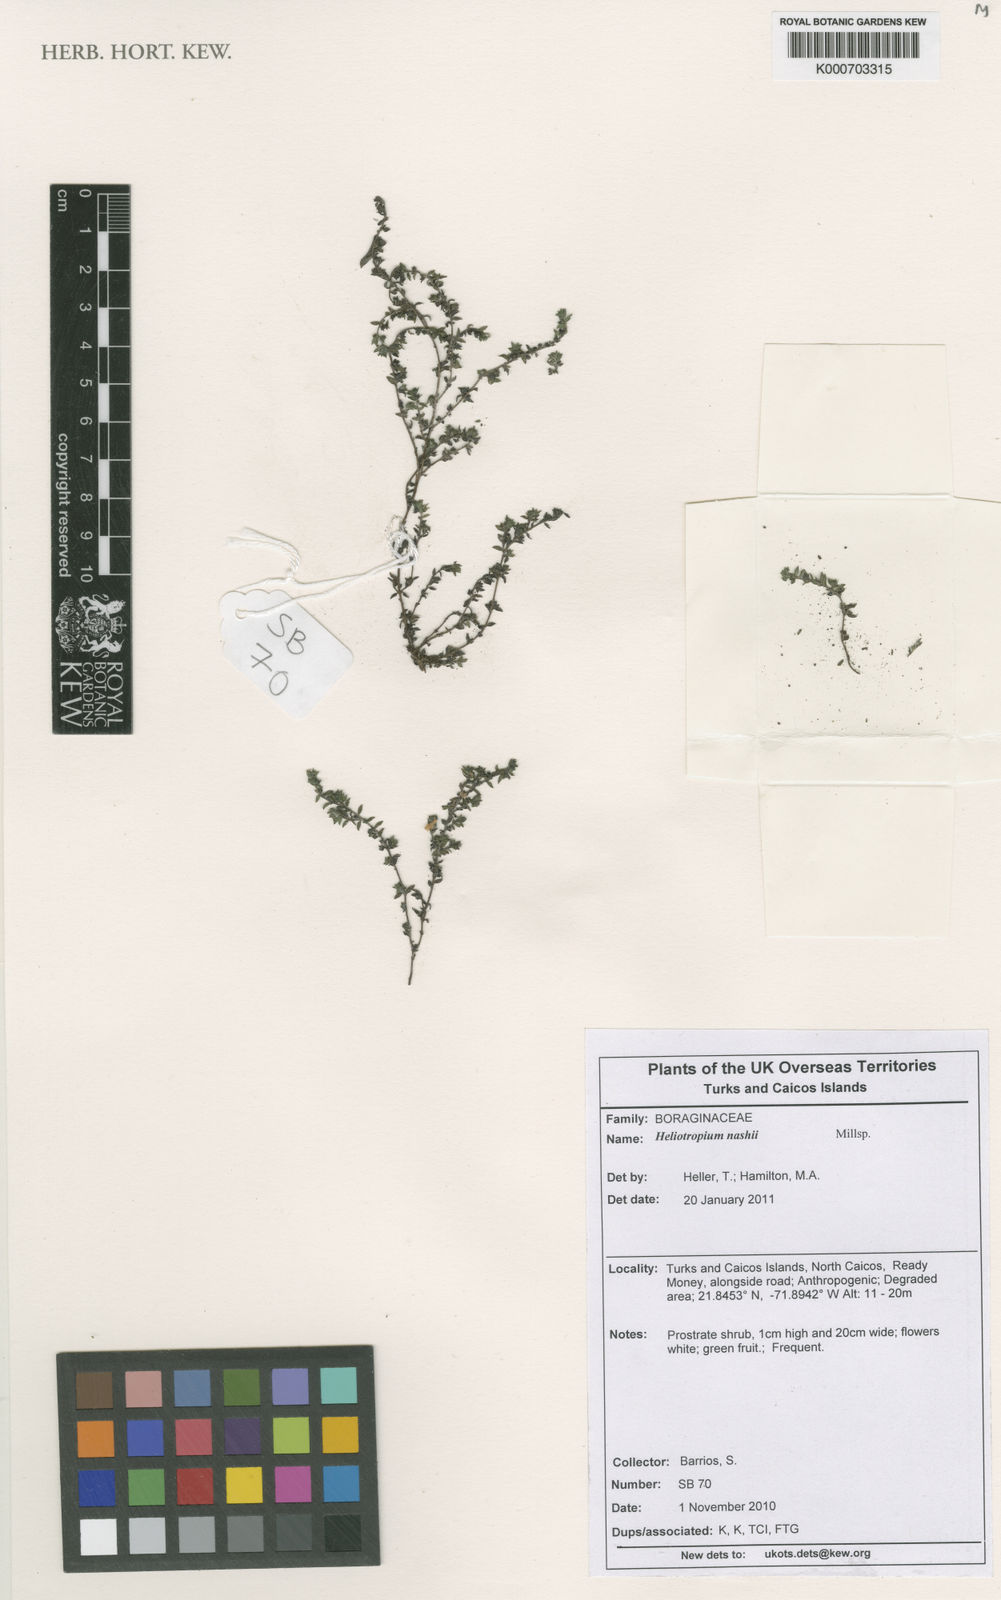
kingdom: Plantae
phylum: Tracheophyta
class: Magnoliopsida
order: Boraginales
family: Heliotropiaceae
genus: Euploca
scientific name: Euploca nashii
